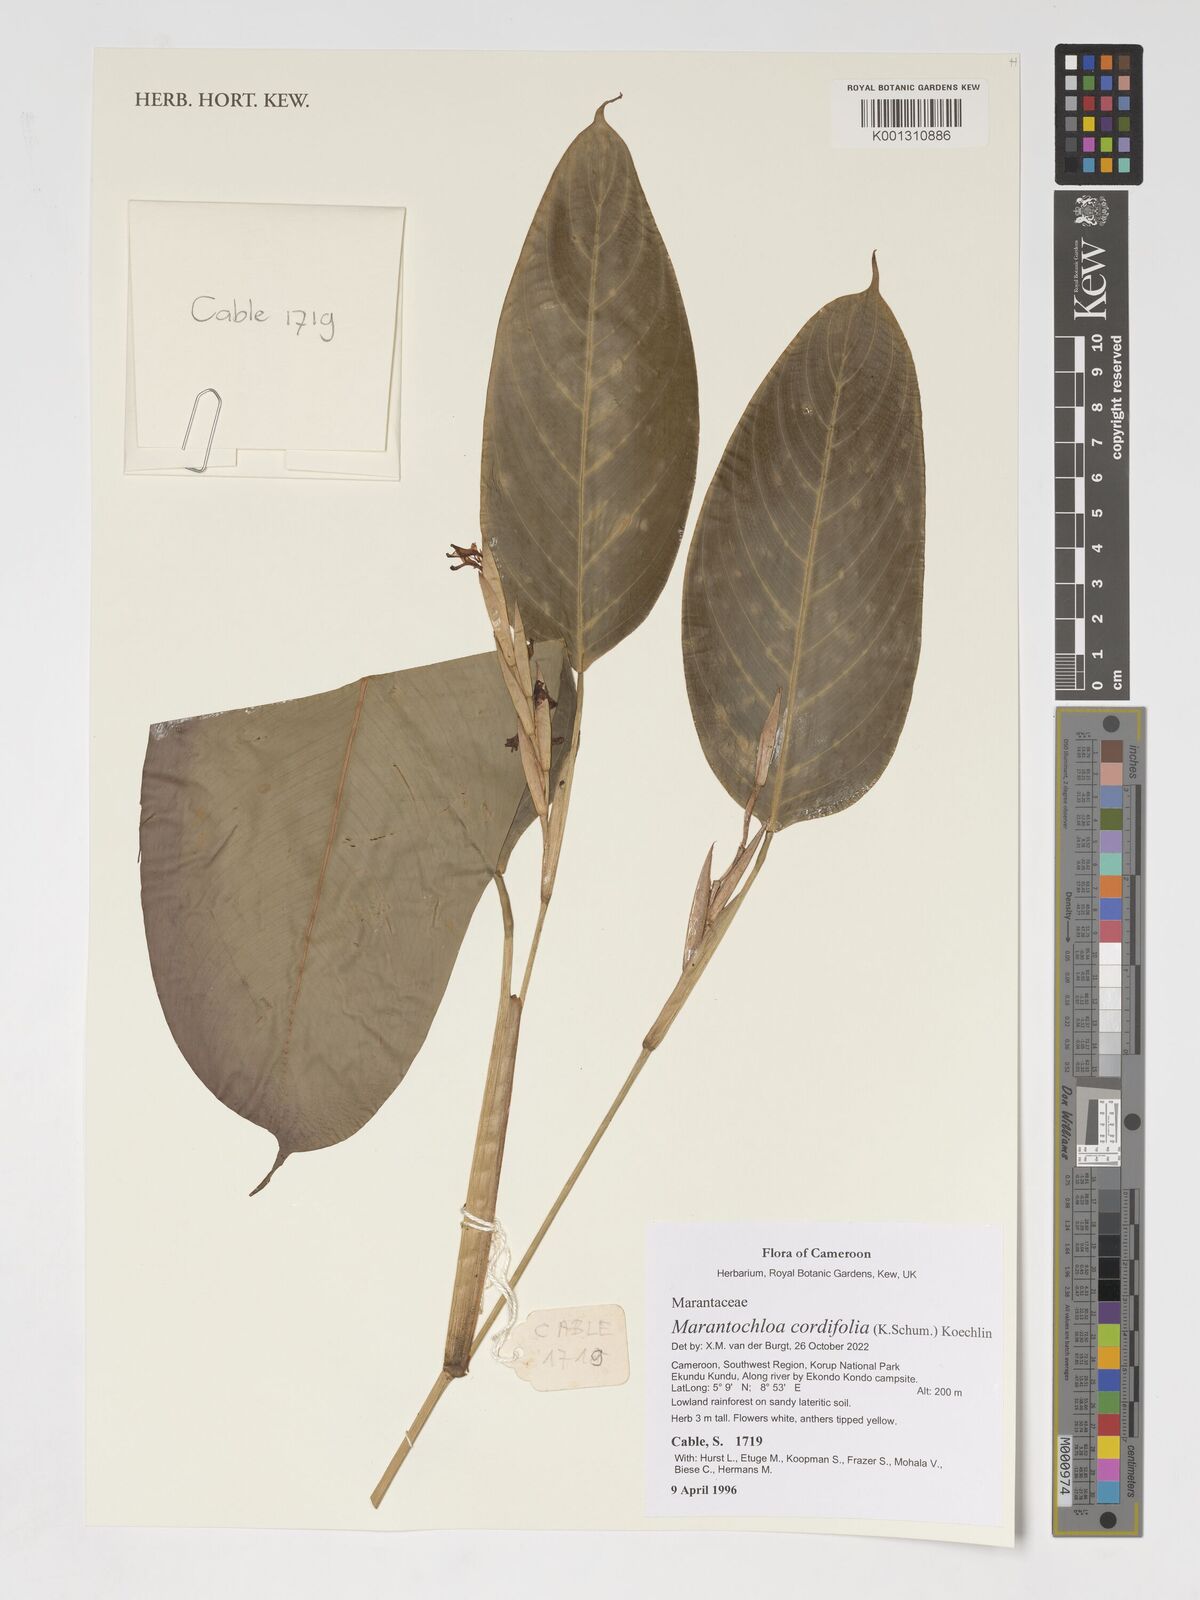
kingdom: Plantae
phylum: Tracheophyta
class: Liliopsida
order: Zingiberales
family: Marantaceae
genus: Marantochloa
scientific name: Marantochloa cordifolia
